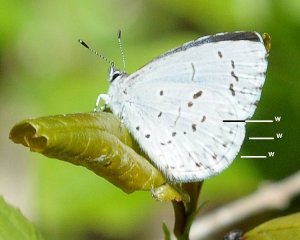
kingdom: Animalia
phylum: Arthropoda
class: Insecta
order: Lepidoptera
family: Lycaenidae
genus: Celastrina
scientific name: Celastrina serotina
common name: Cherry Gall Azure
